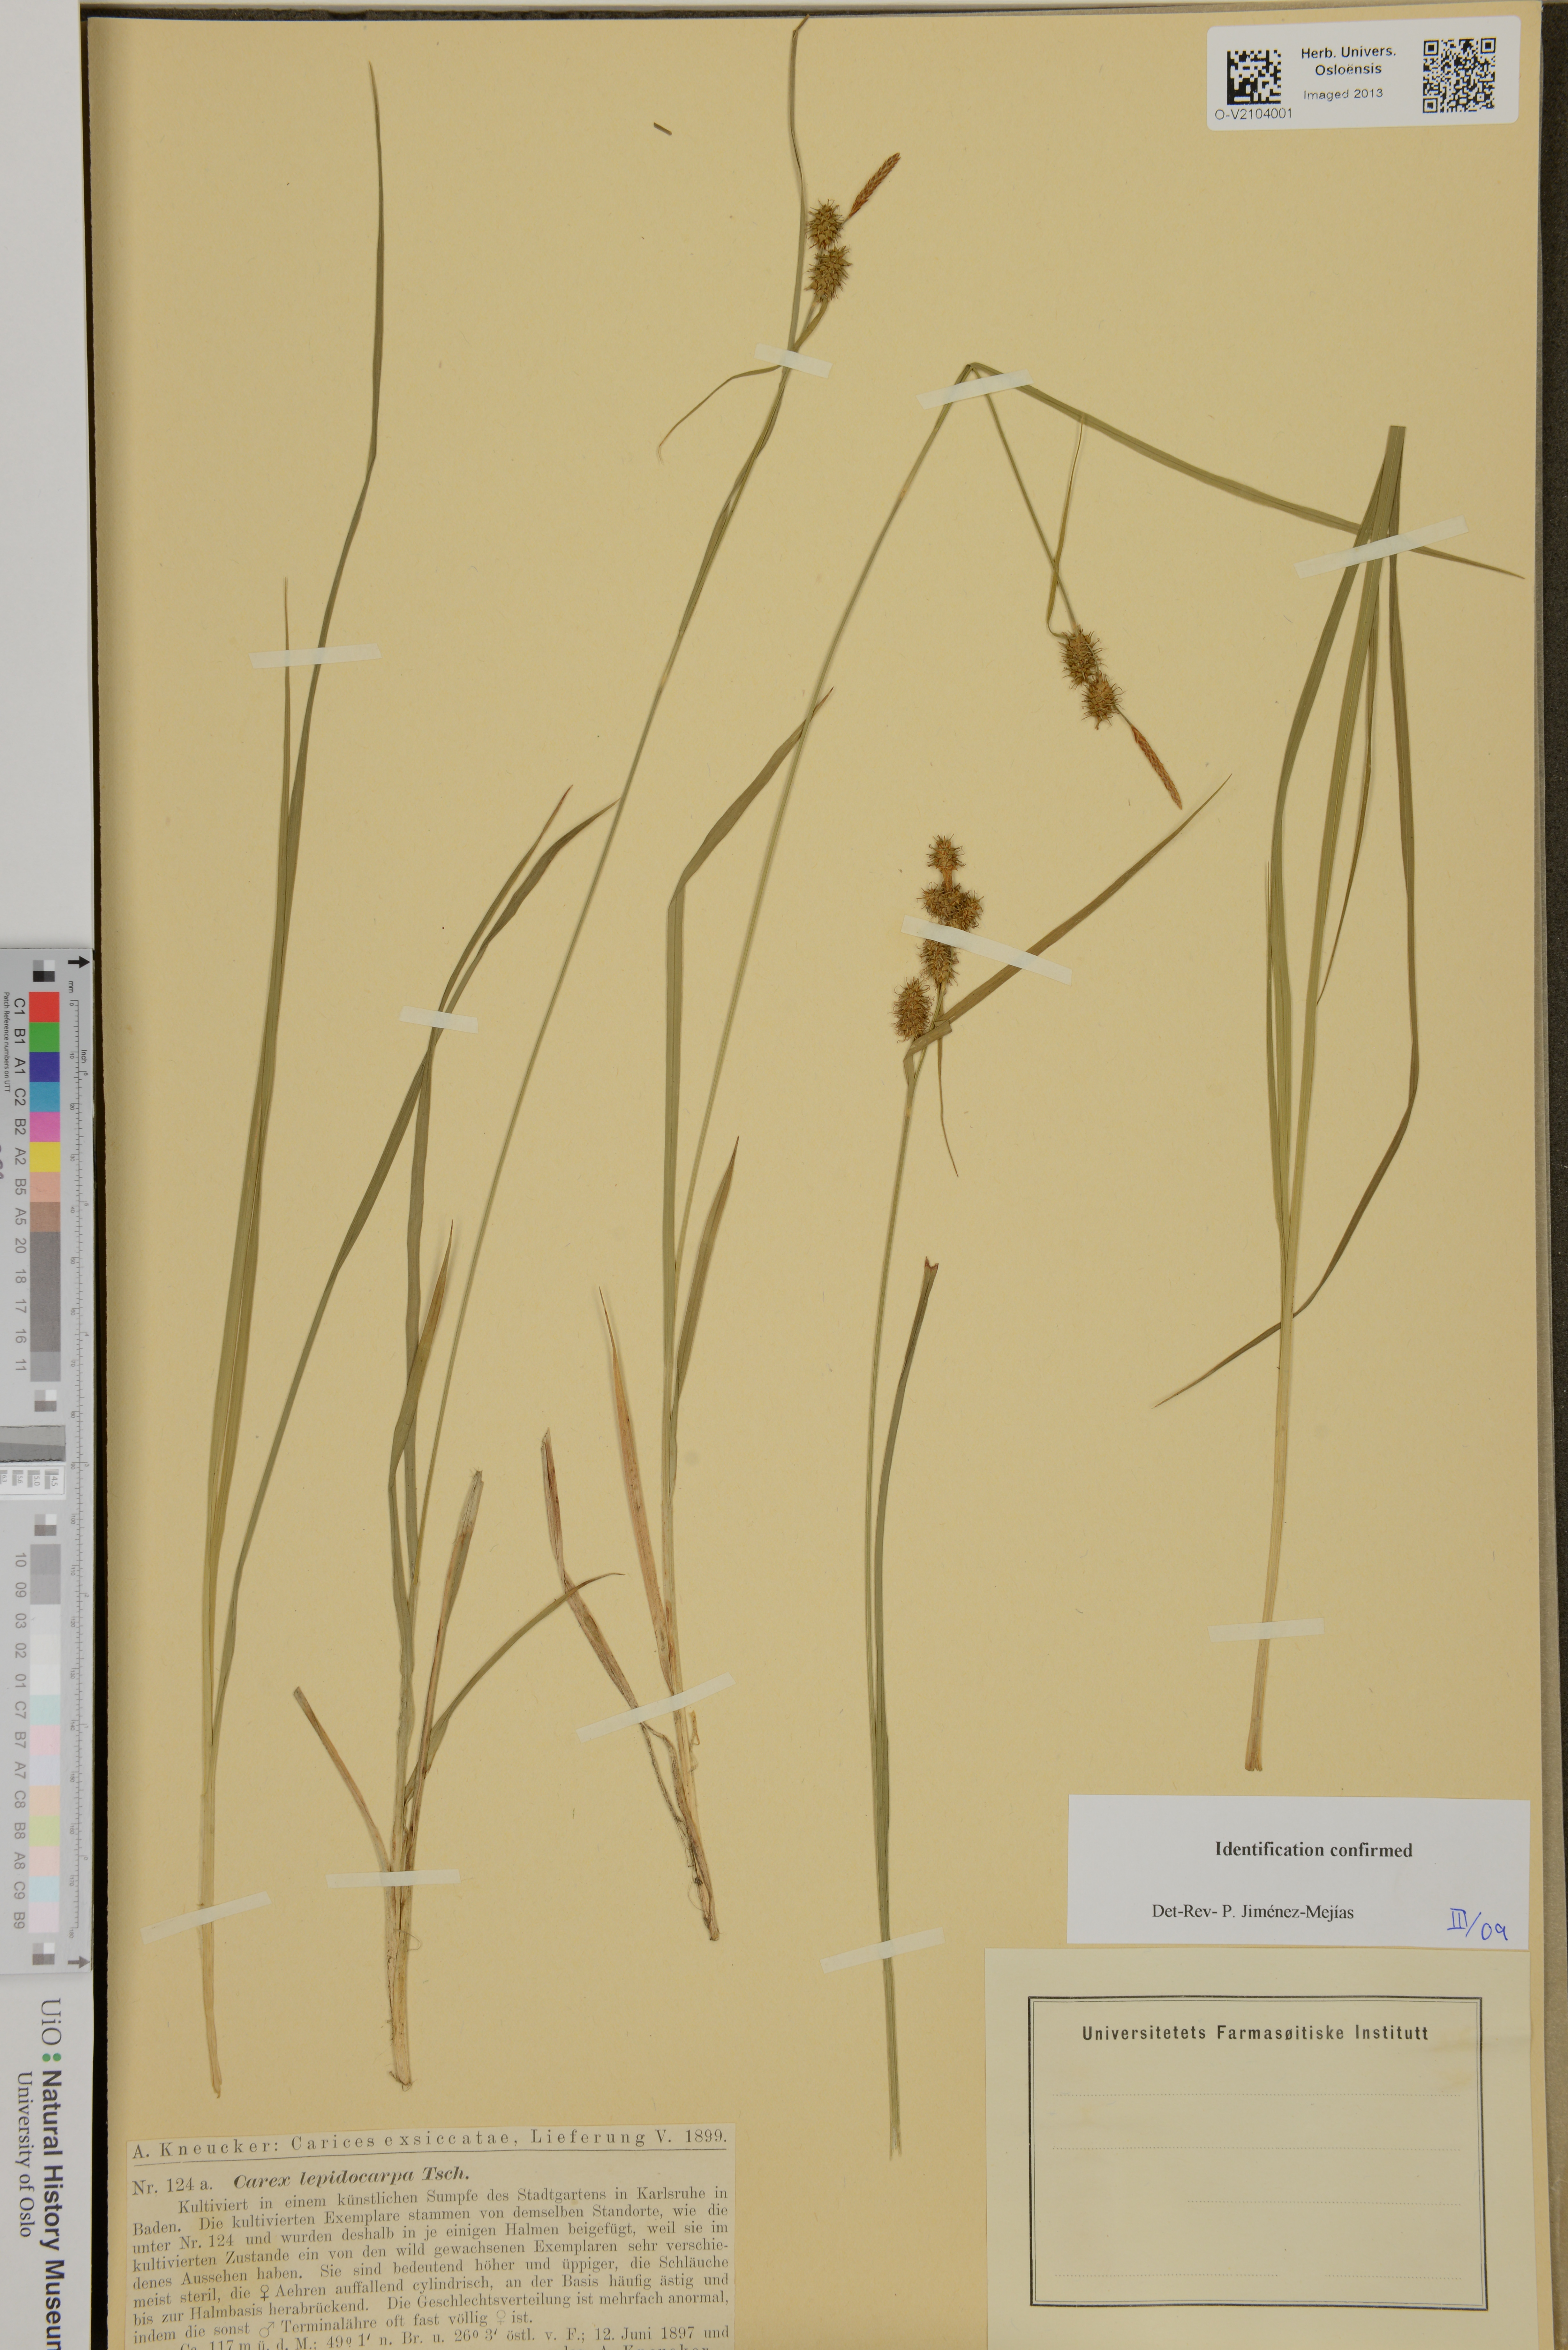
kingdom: Plantae
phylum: Tracheophyta
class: Liliopsida
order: Poales
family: Cyperaceae
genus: Carex
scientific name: Carex lepidocarpa
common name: Long-stalked yellow-sedge
